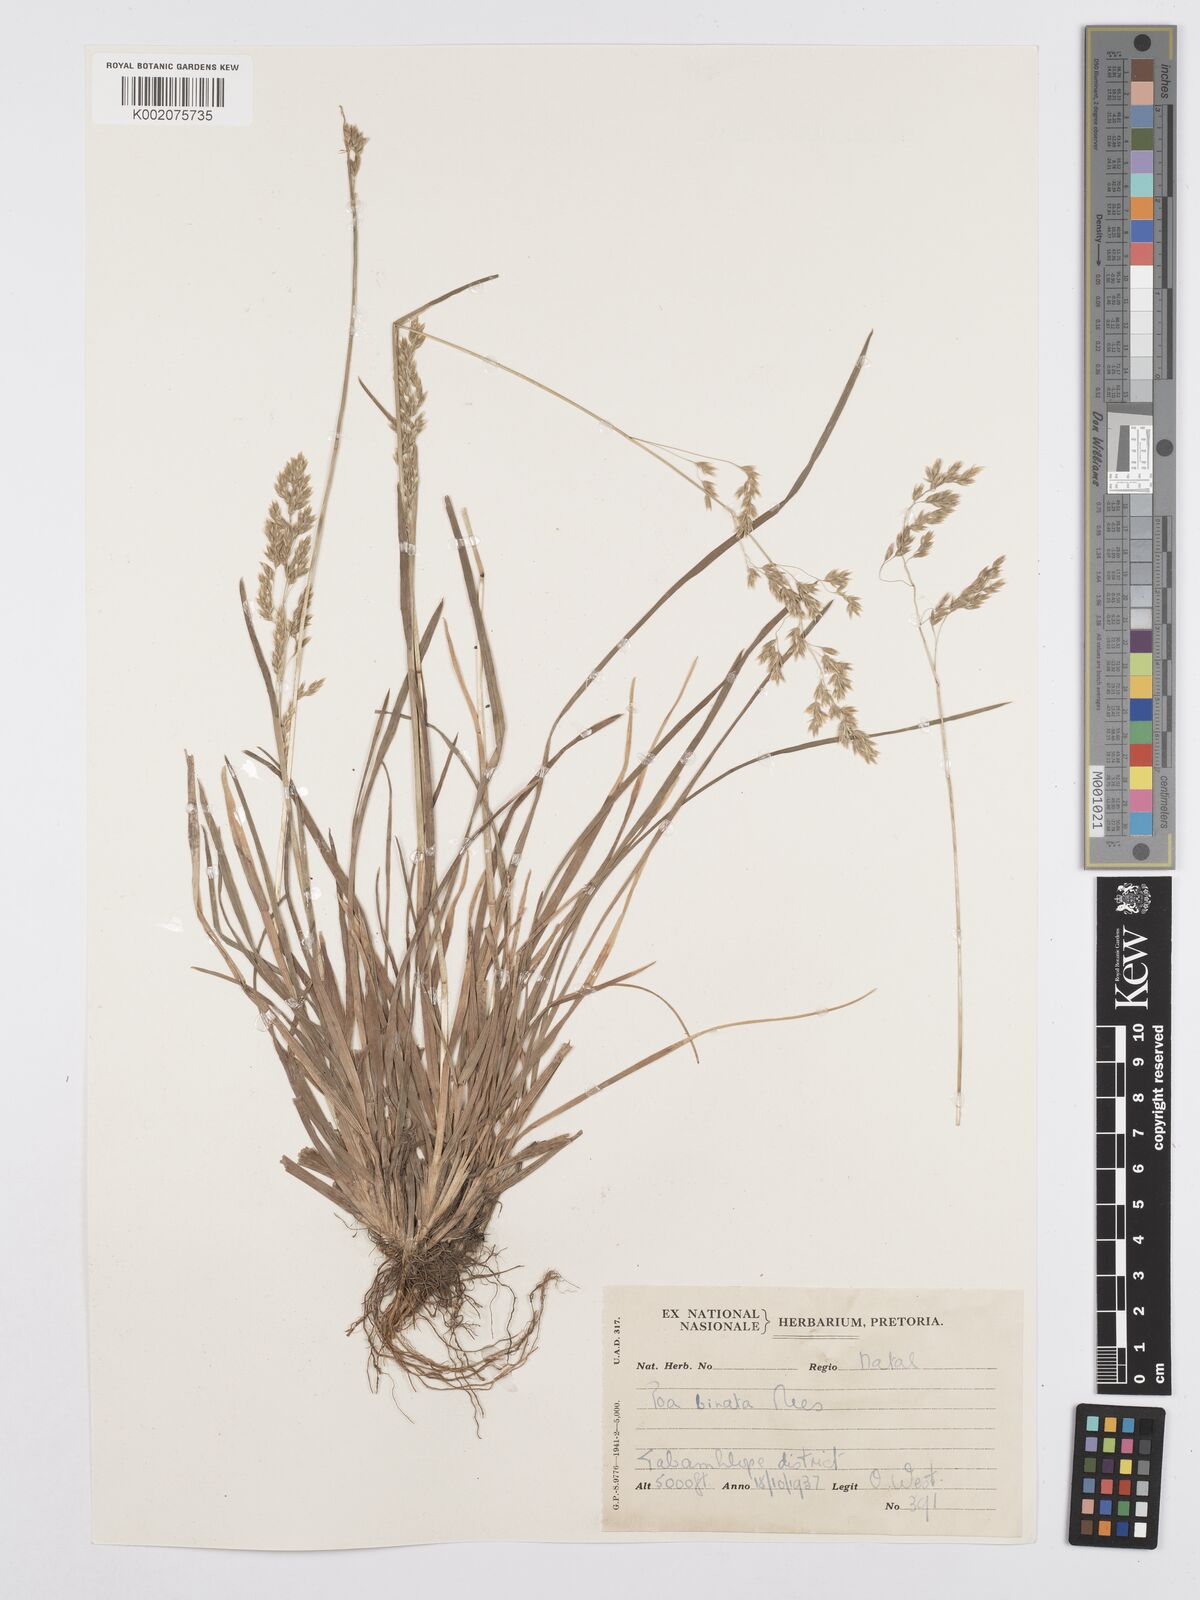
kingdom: Plantae
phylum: Tracheophyta
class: Liliopsida
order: Poales
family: Poaceae
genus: Poa
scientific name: Poa binata
